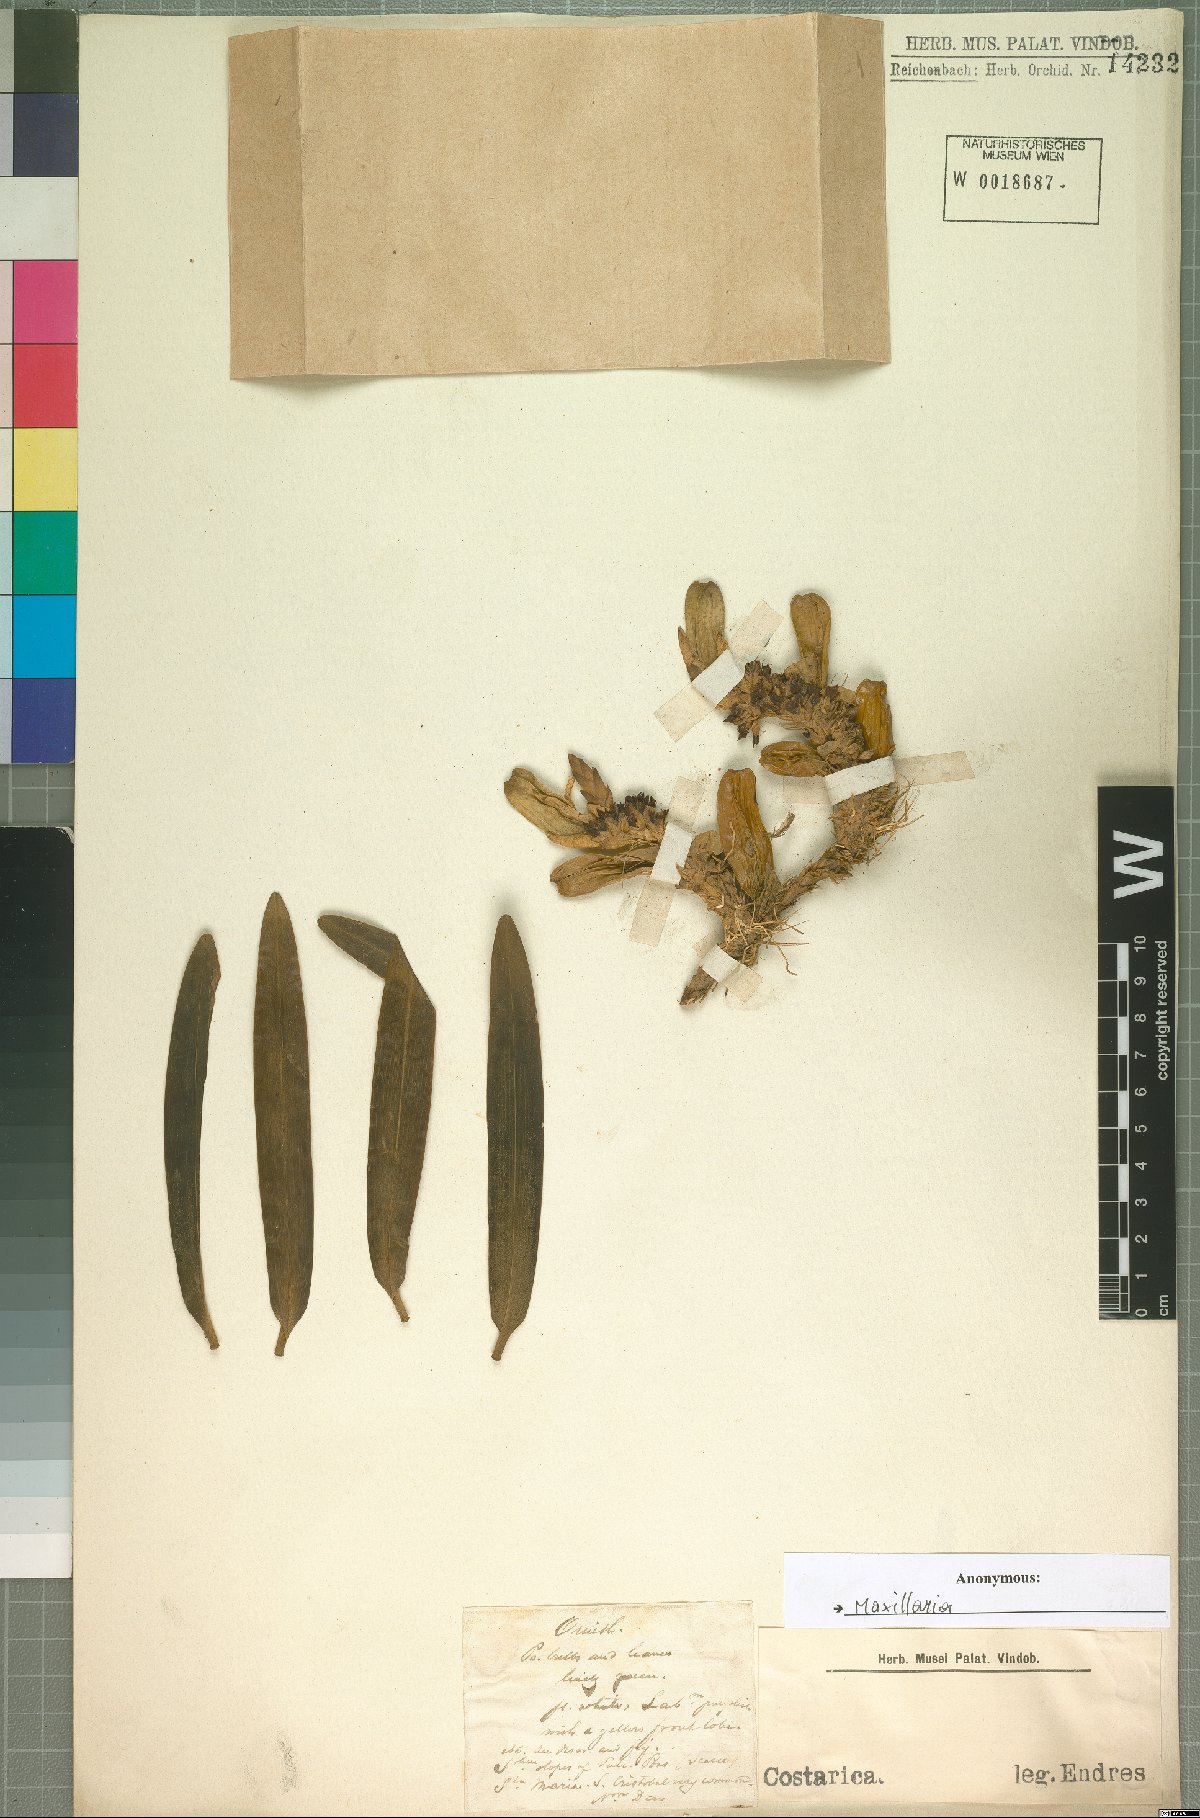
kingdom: Plantae
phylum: Tracheophyta
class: Liliopsida
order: Asparagales
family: Orchidaceae
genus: Maxillaria
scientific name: Maxillaria
